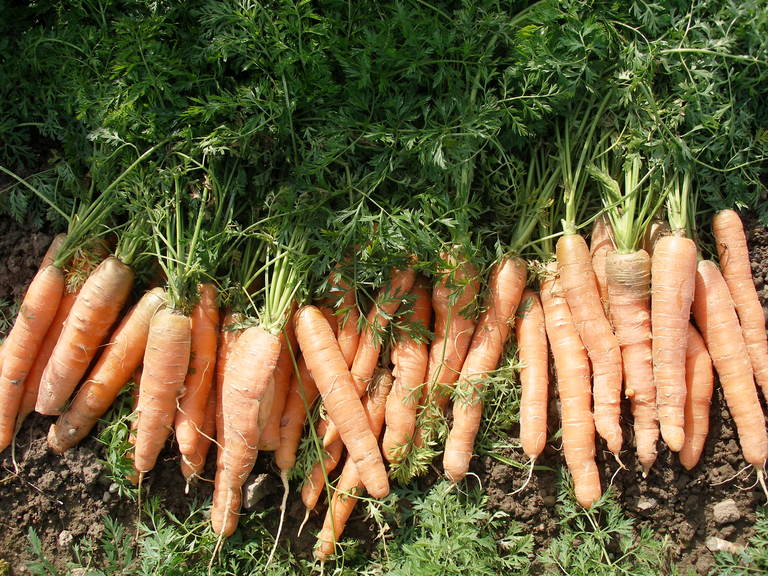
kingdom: Plantae
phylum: Tracheophyta
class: Magnoliopsida
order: Apiales
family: Apiaceae
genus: Daucus
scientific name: Daucus carota
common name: Wild carrot
